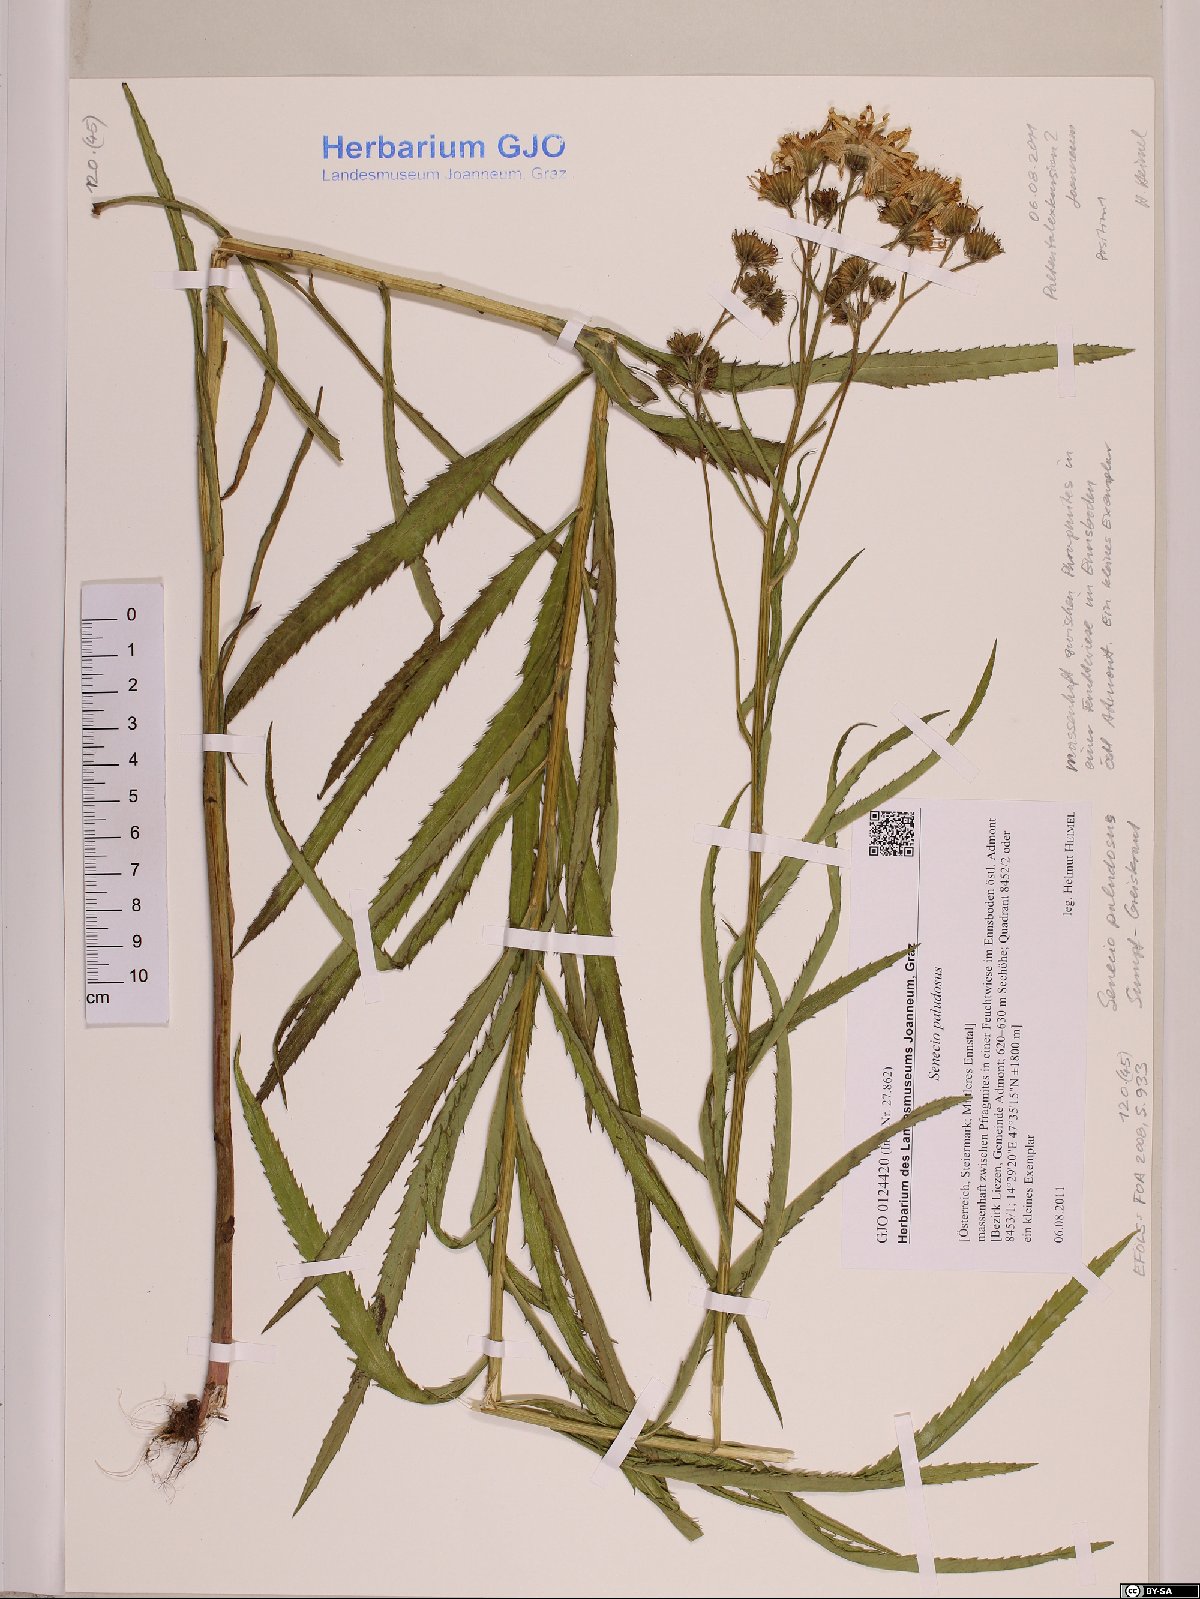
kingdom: Plantae
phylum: Tracheophyta
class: Magnoliopsida
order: Asterales
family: Asteraceae
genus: Jacobaea
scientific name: Jacobaea paludosa
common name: Fen ragwort
